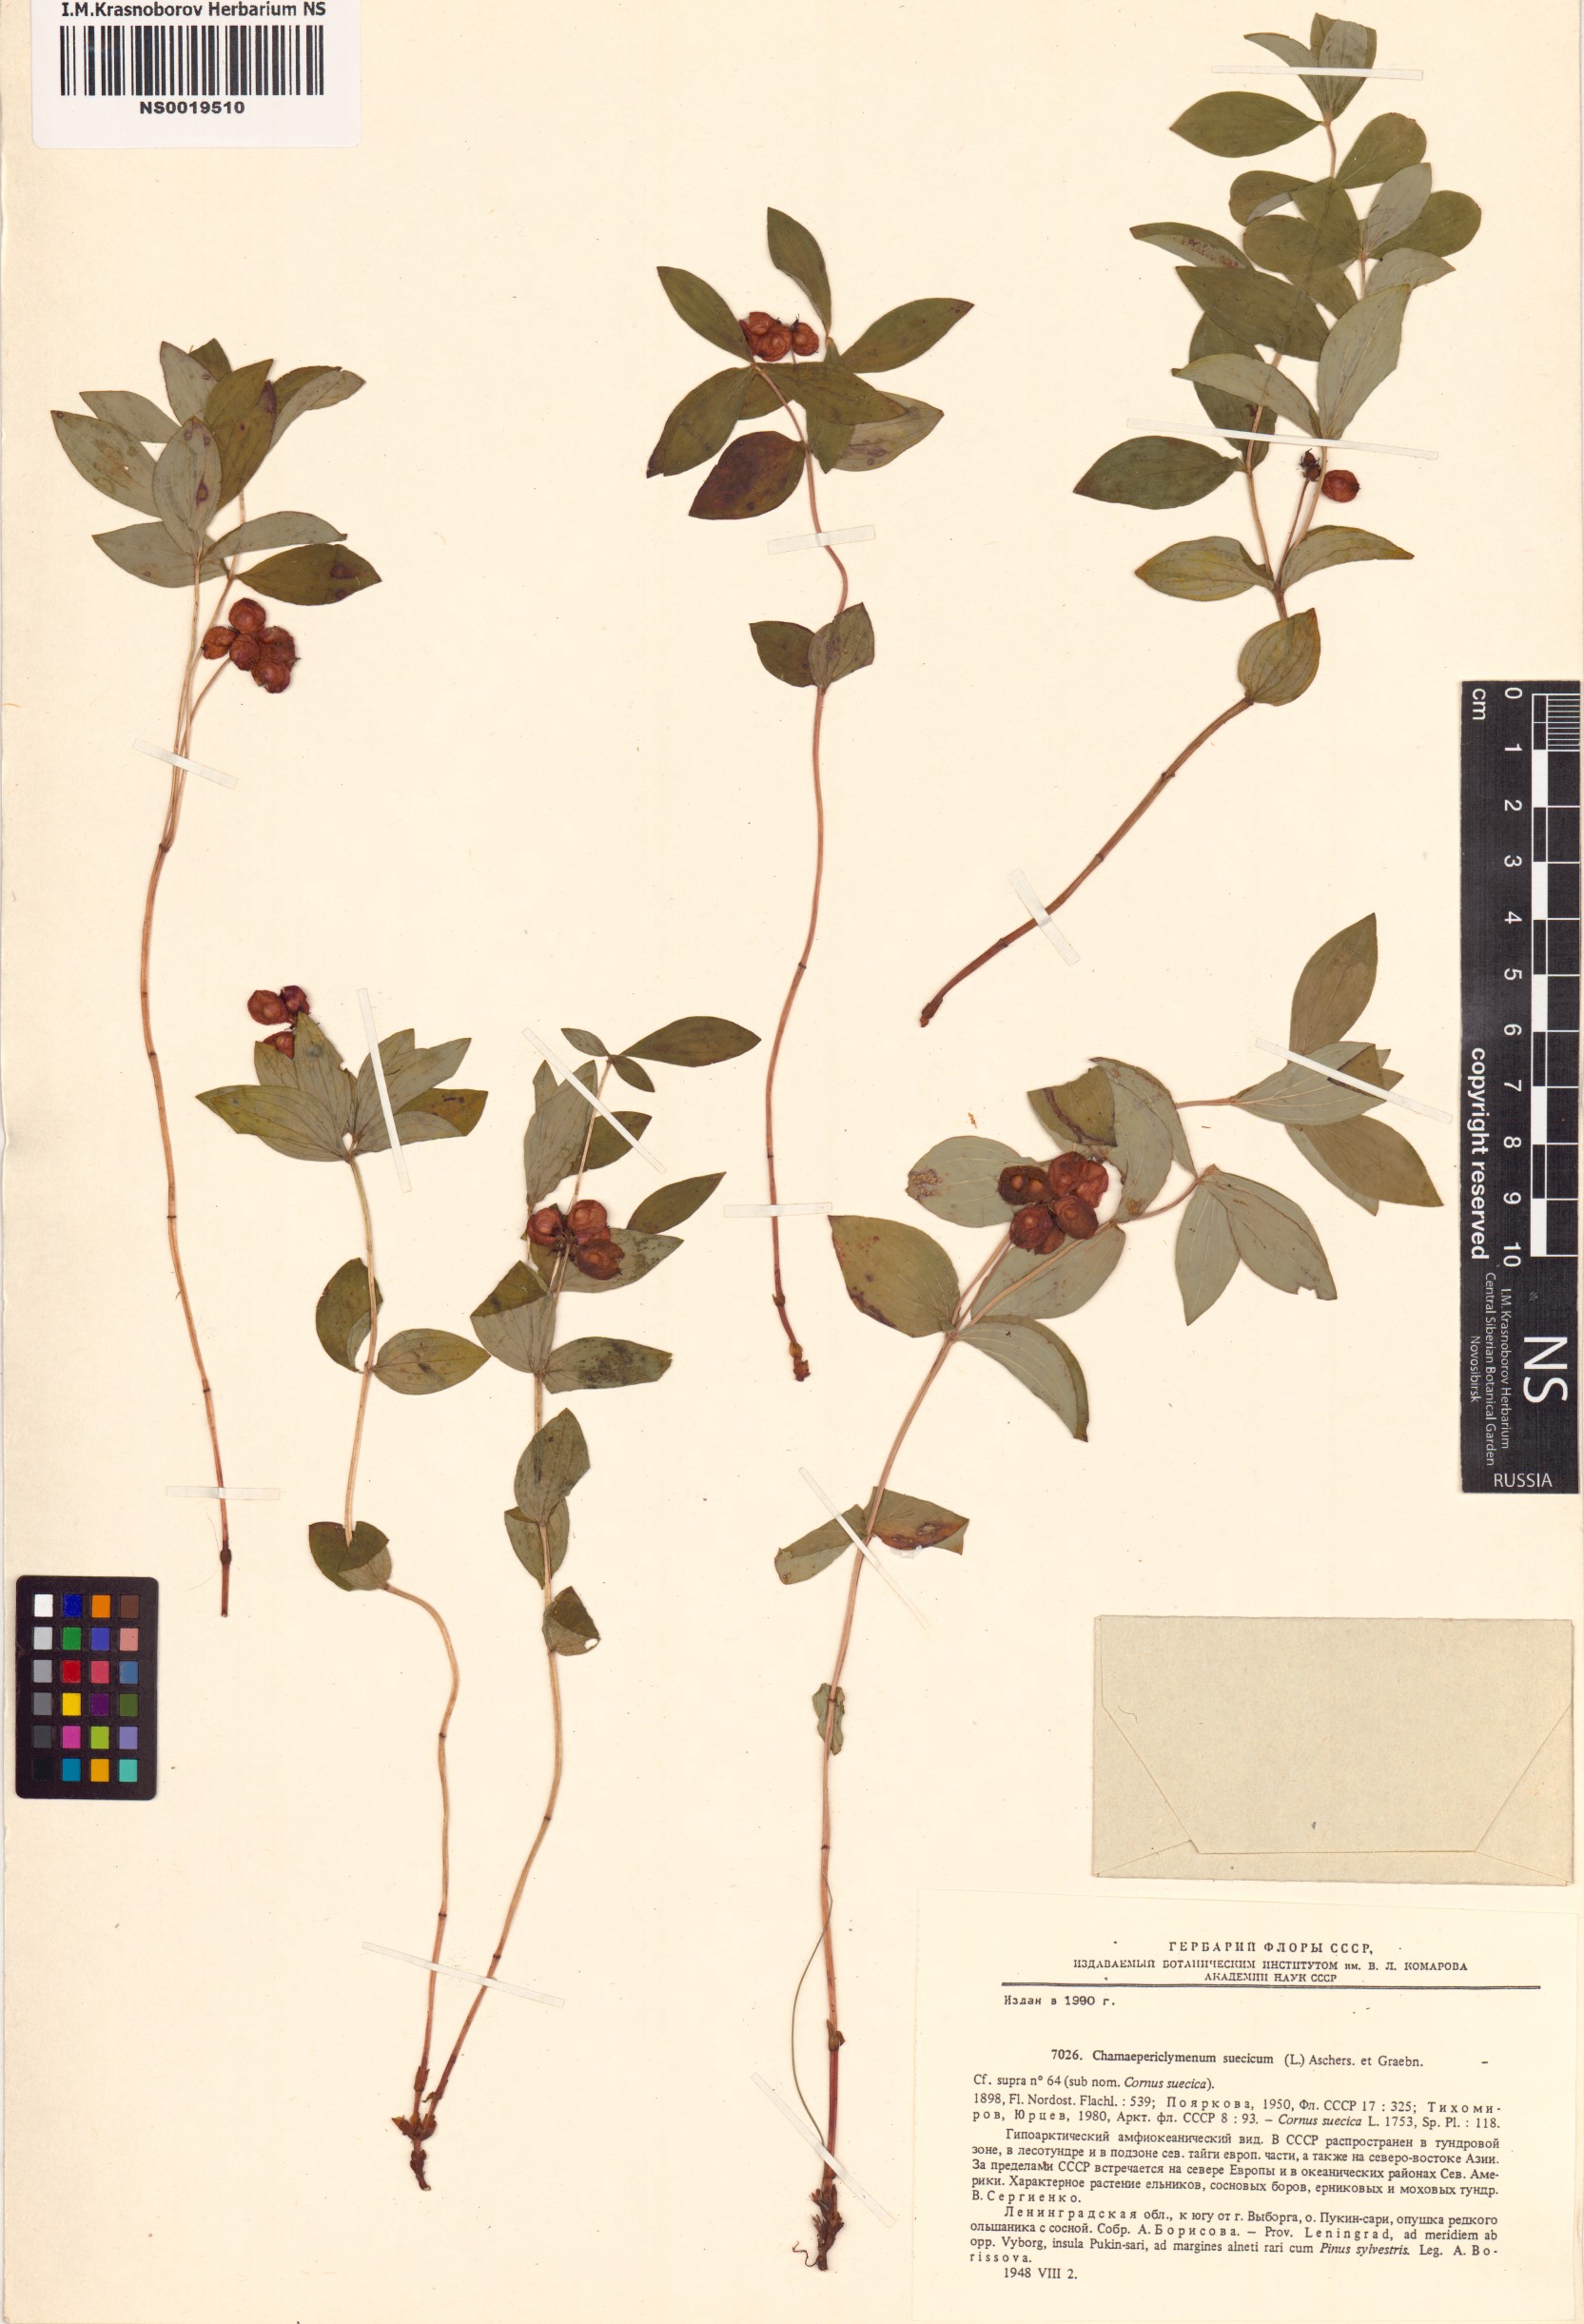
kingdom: Plantae
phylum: Tracheophyta
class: Magnoliopsida
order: Cornales
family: Cornaceae
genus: Cornus
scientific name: Cornus suecica
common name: Dwarf cornel
